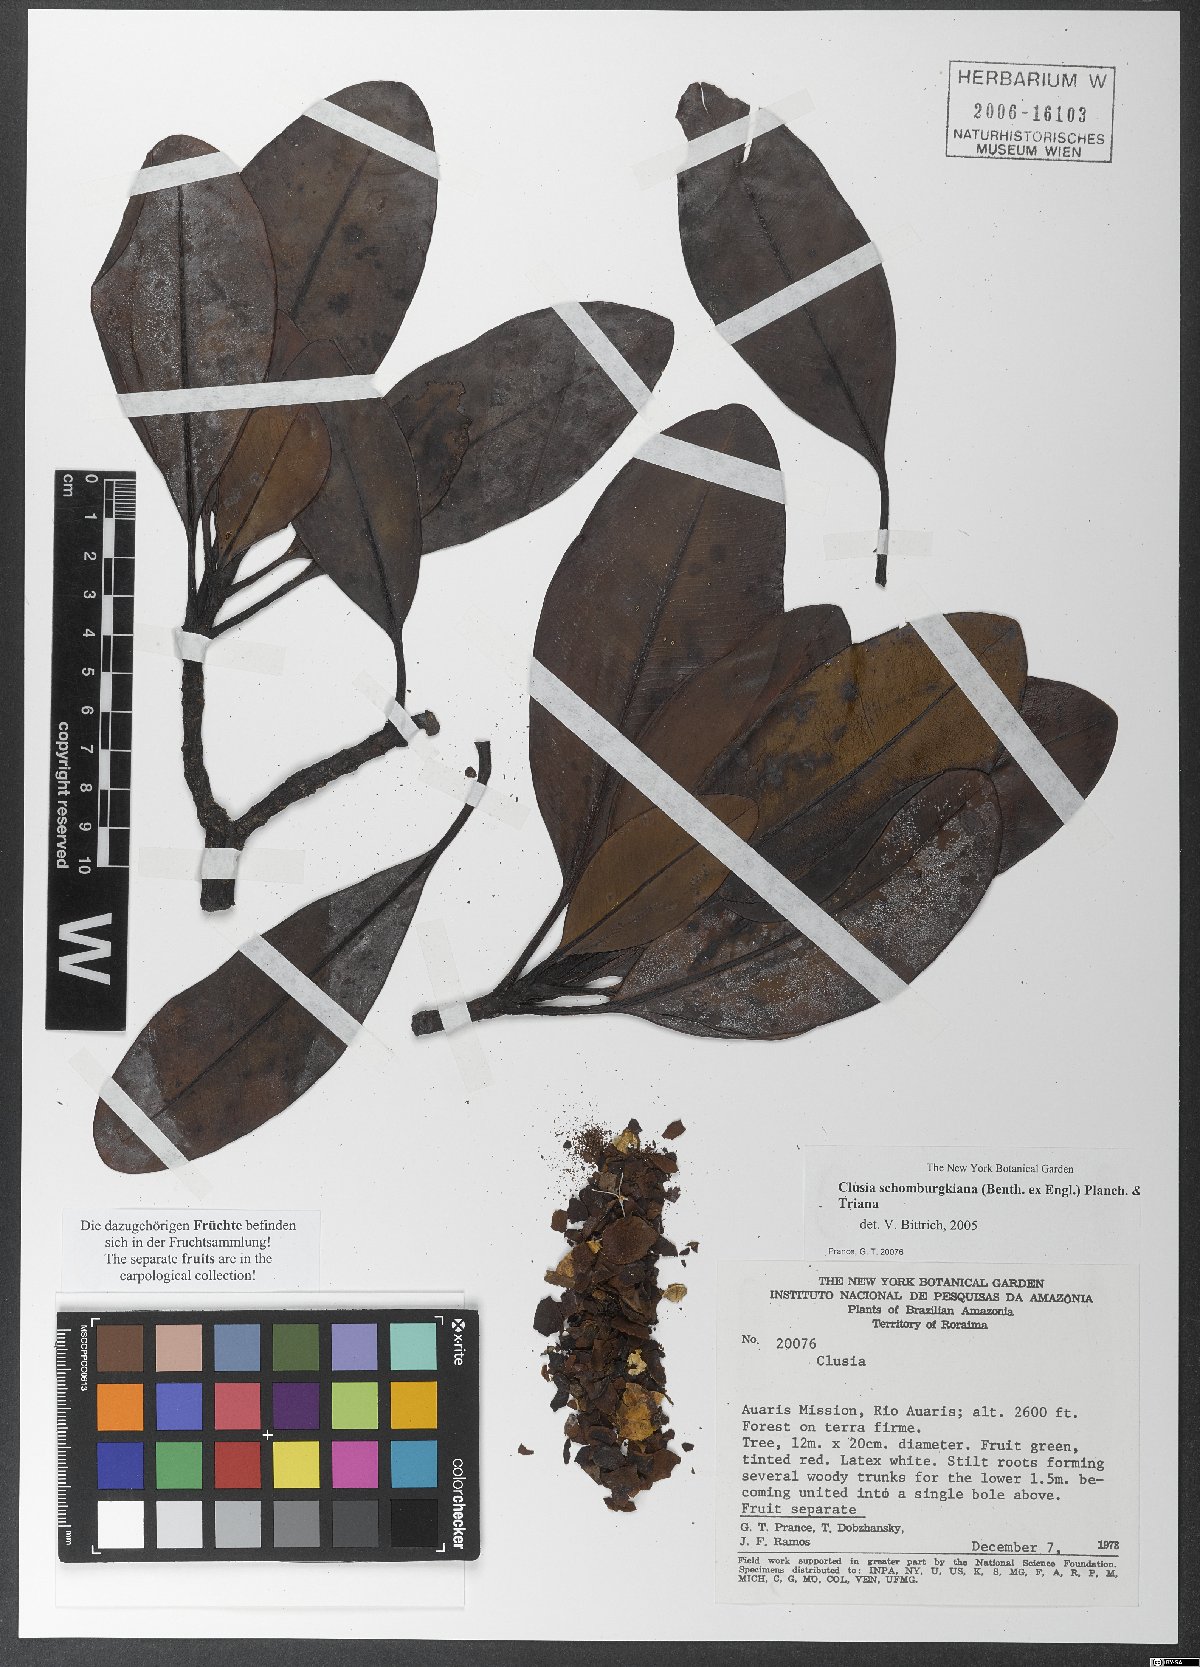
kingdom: Plantae
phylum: Tracheophyta
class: Magnoliopsida
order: Malpighiales
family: Clusiaceae
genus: Clusia
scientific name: Clusia schomburgkiana
